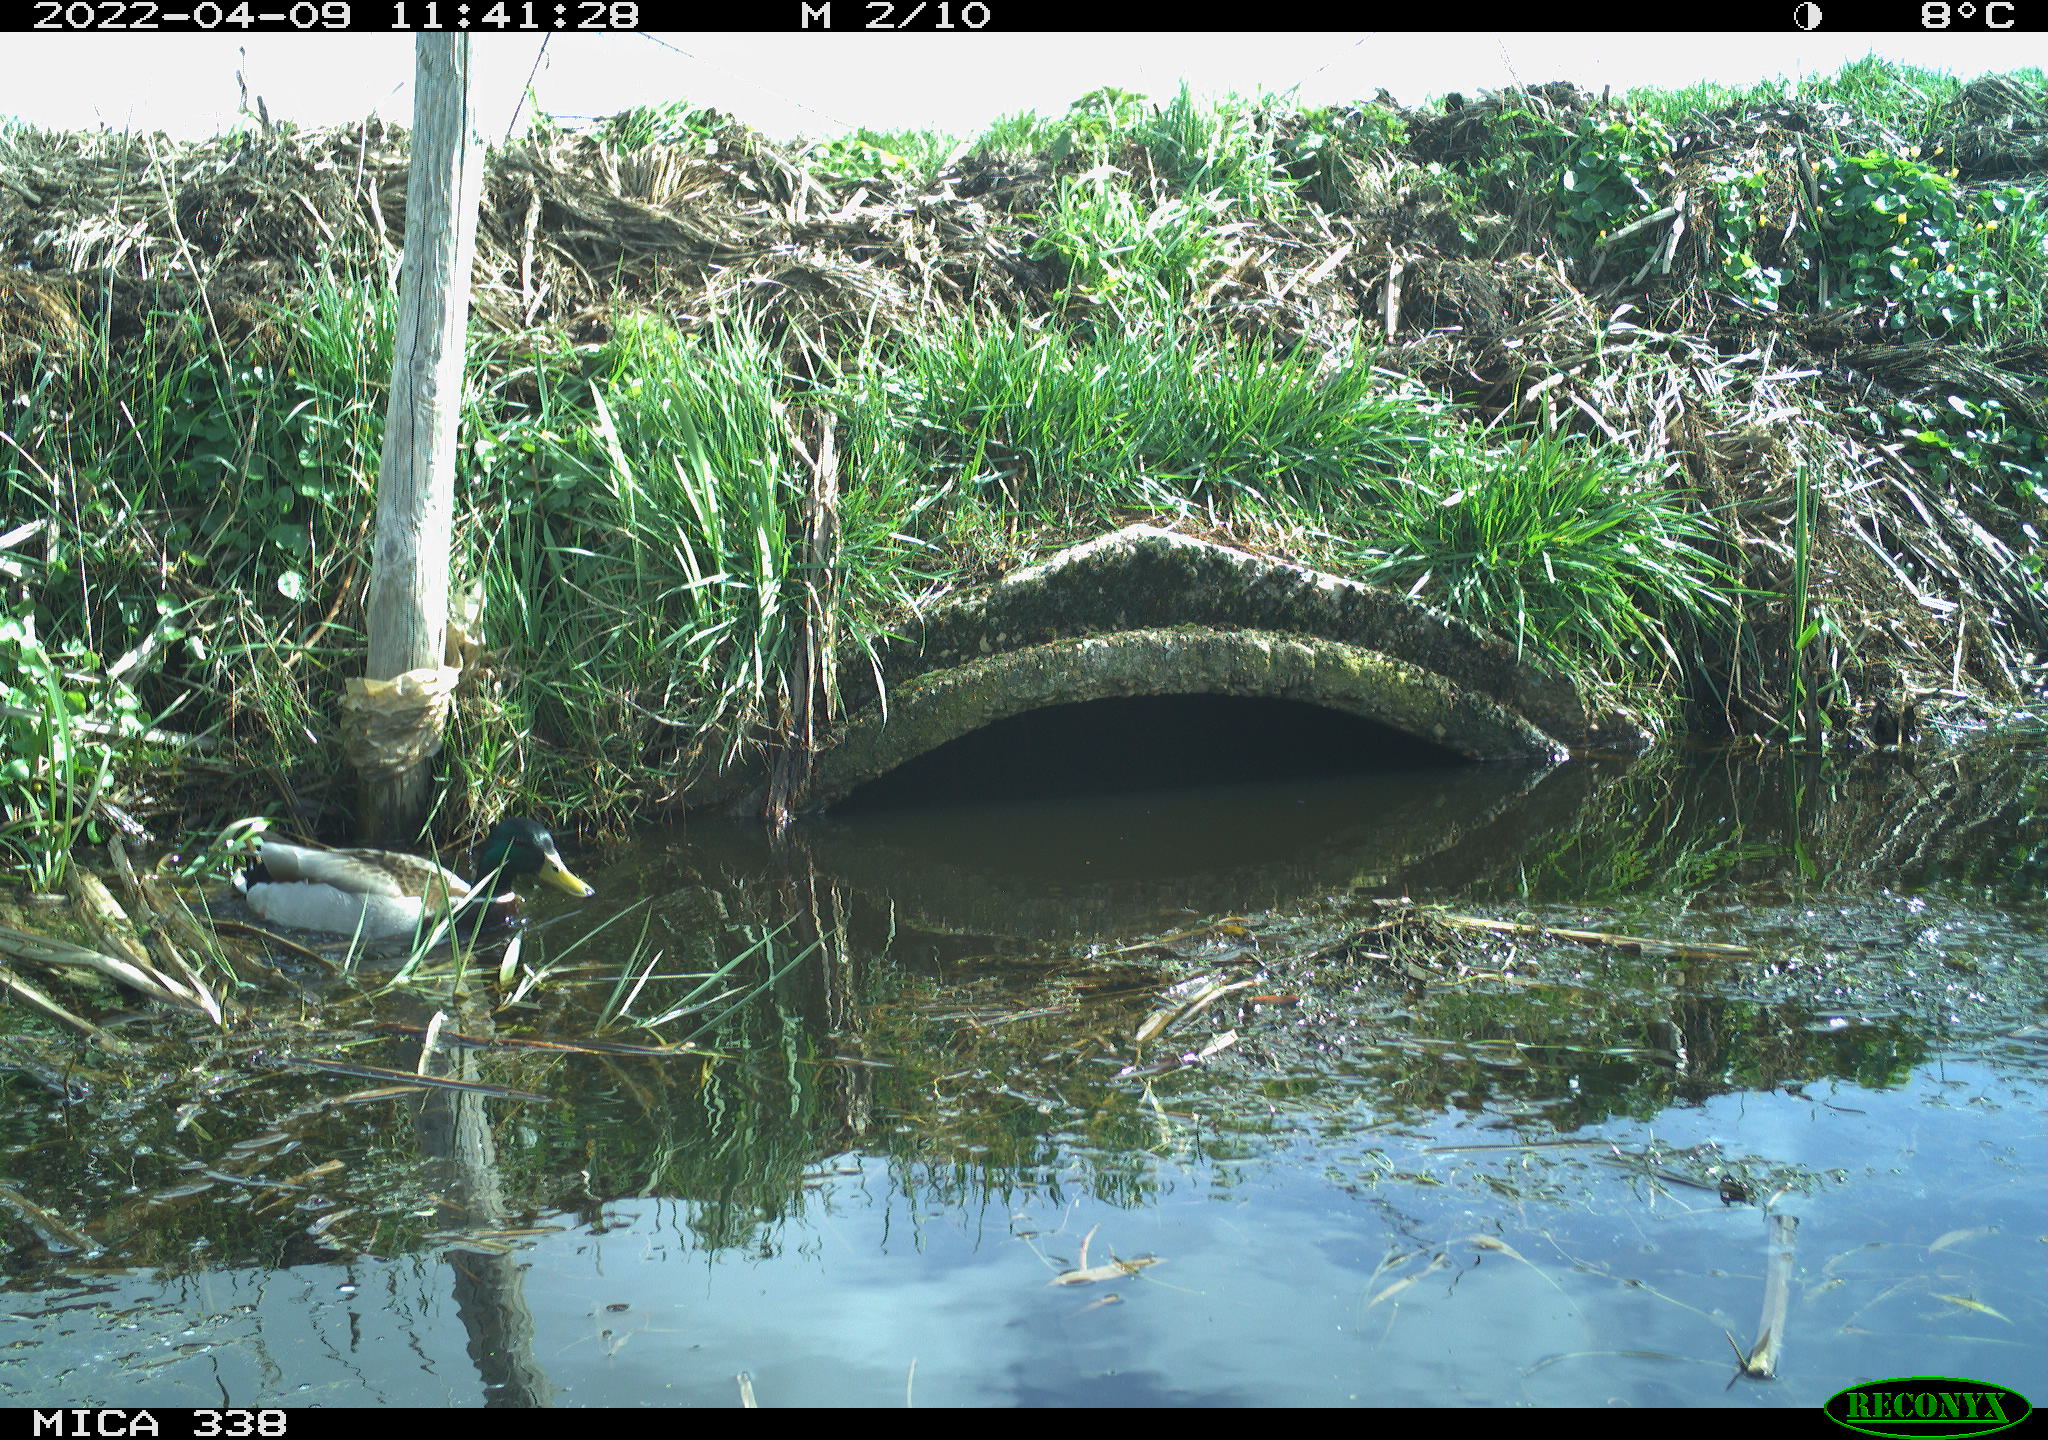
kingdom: Animalia
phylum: Chordata
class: Aves
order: Anseriformes
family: Anatidae
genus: Anas
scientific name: Anas platyrhynchos
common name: Mallard
